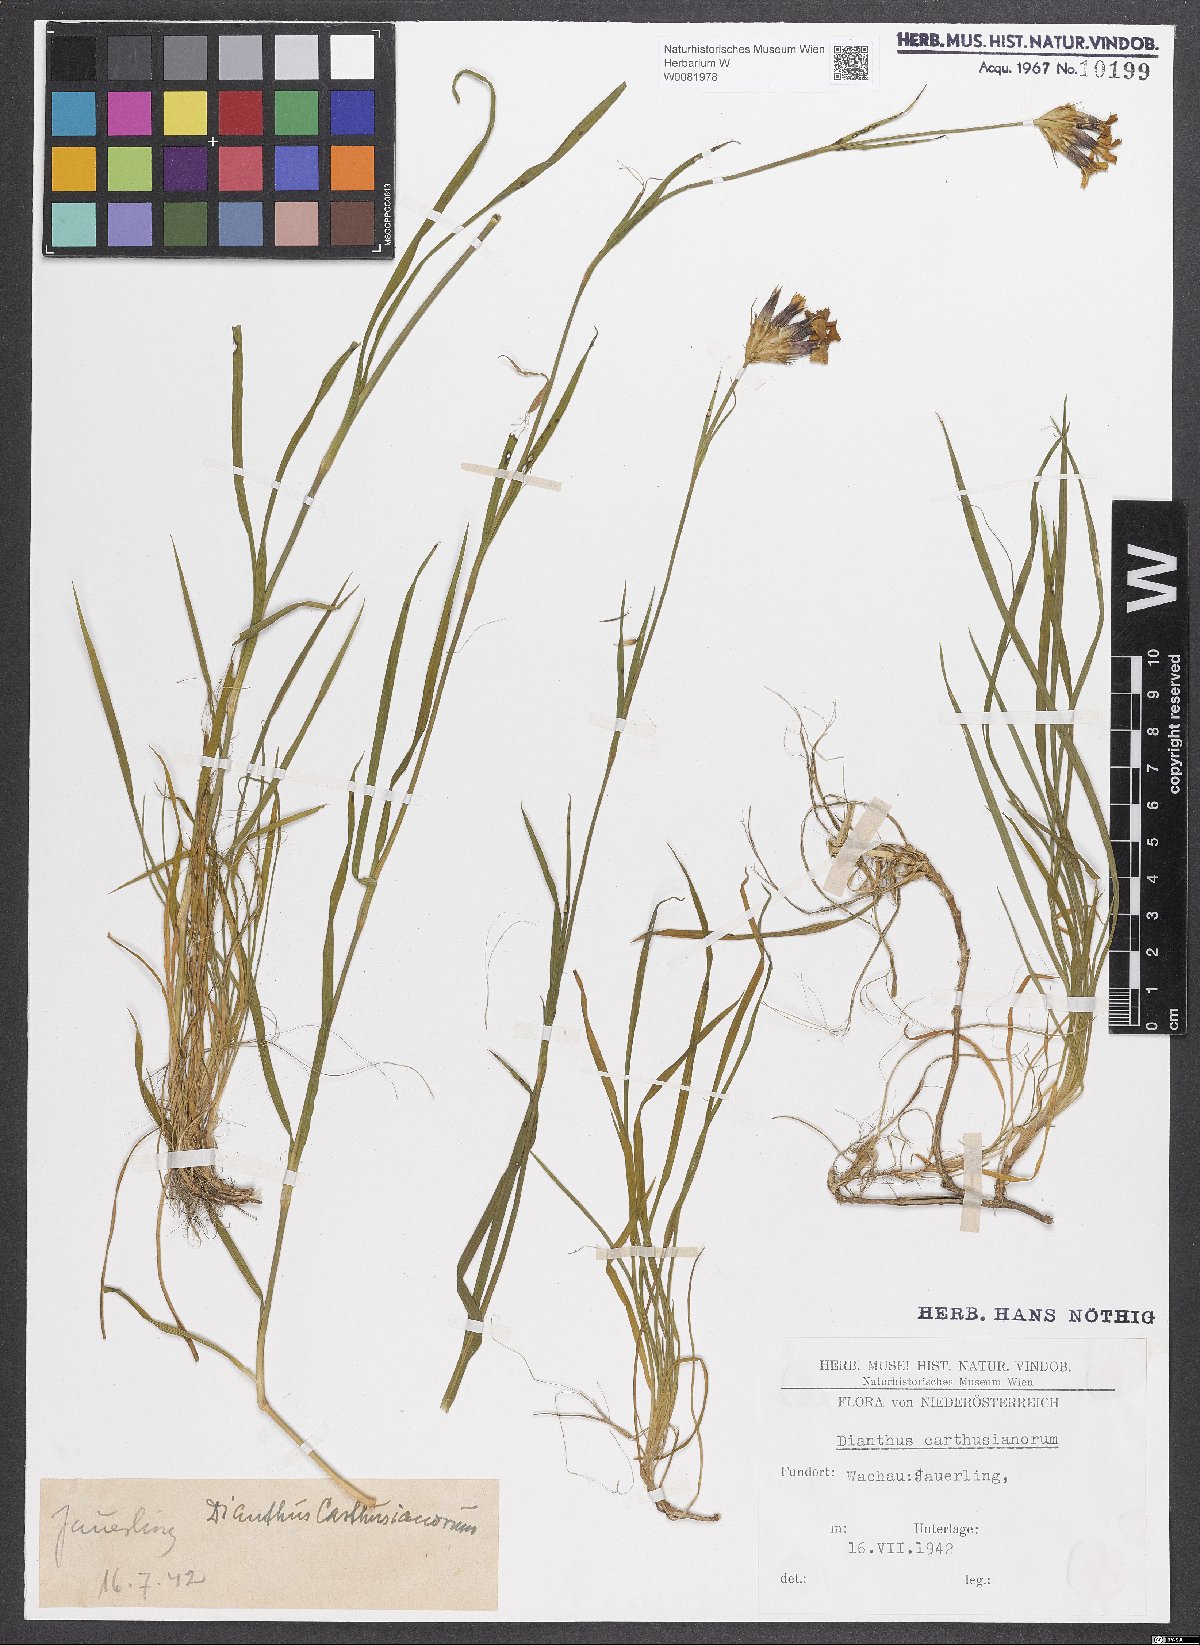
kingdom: Plantae
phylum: Tracheophyta
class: Magnoliopsida
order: Caryophyllales
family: Caryophyllaceae
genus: Dianthus
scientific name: Dianthus carthusianorum
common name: Carthusian pink
